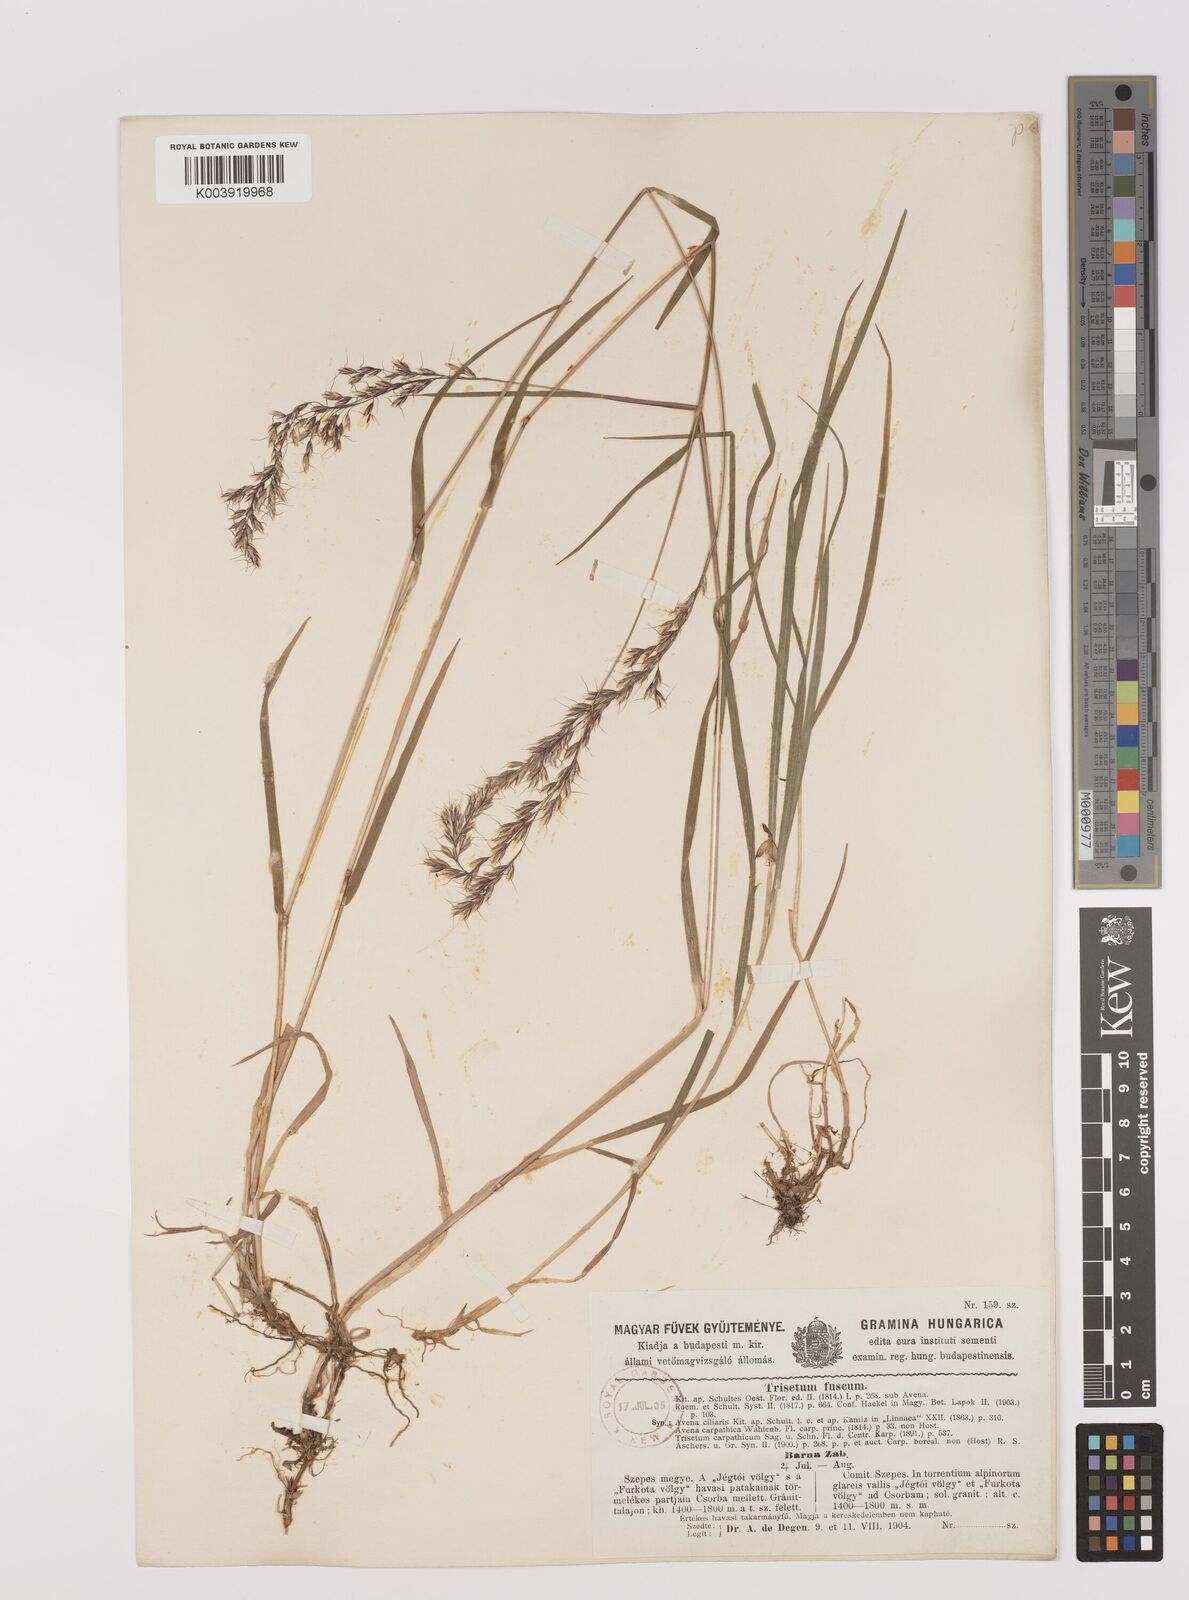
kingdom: Plantae
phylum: Tracheophyta
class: Liliopsida
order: Poales
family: Poaceae
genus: Trisetum
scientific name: Trisetum fuscum
